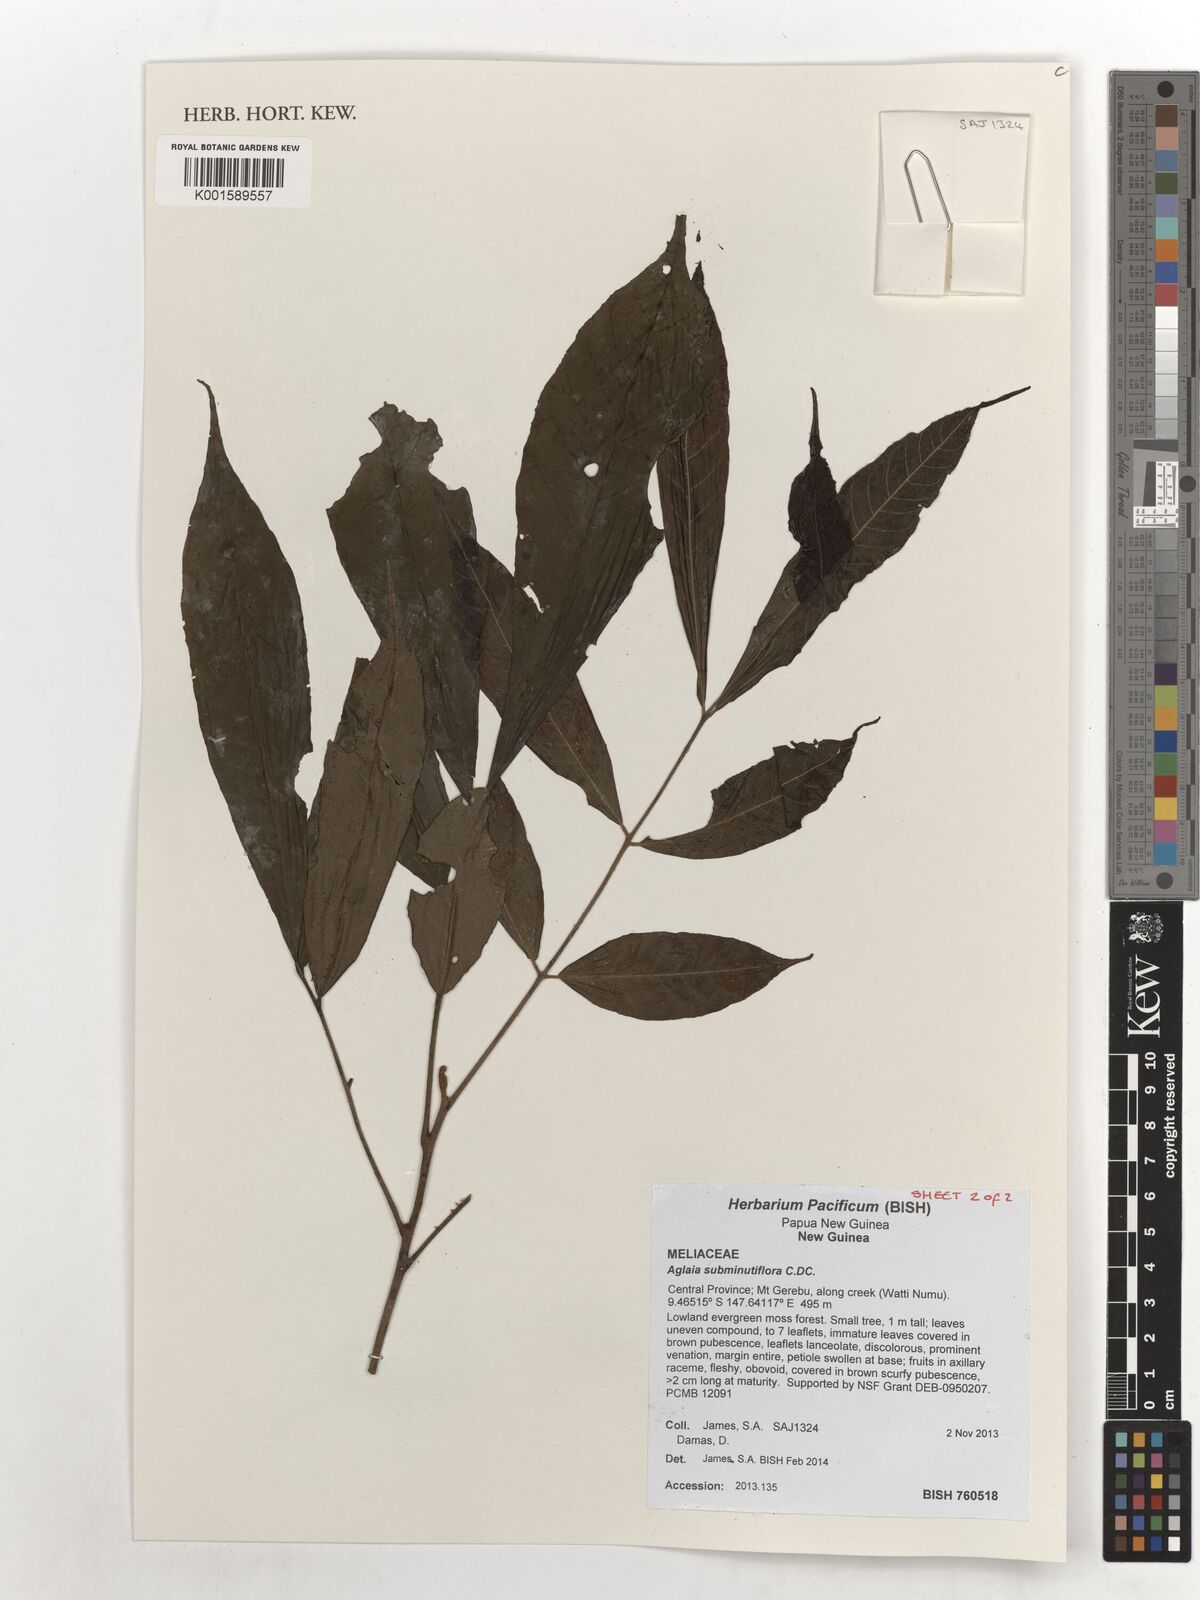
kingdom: Plantae
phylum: Tracheophyta
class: Magnoliopsida
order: Sapindales
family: Meliaceae
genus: Aglaia
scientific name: Aglaia subminutiflora
